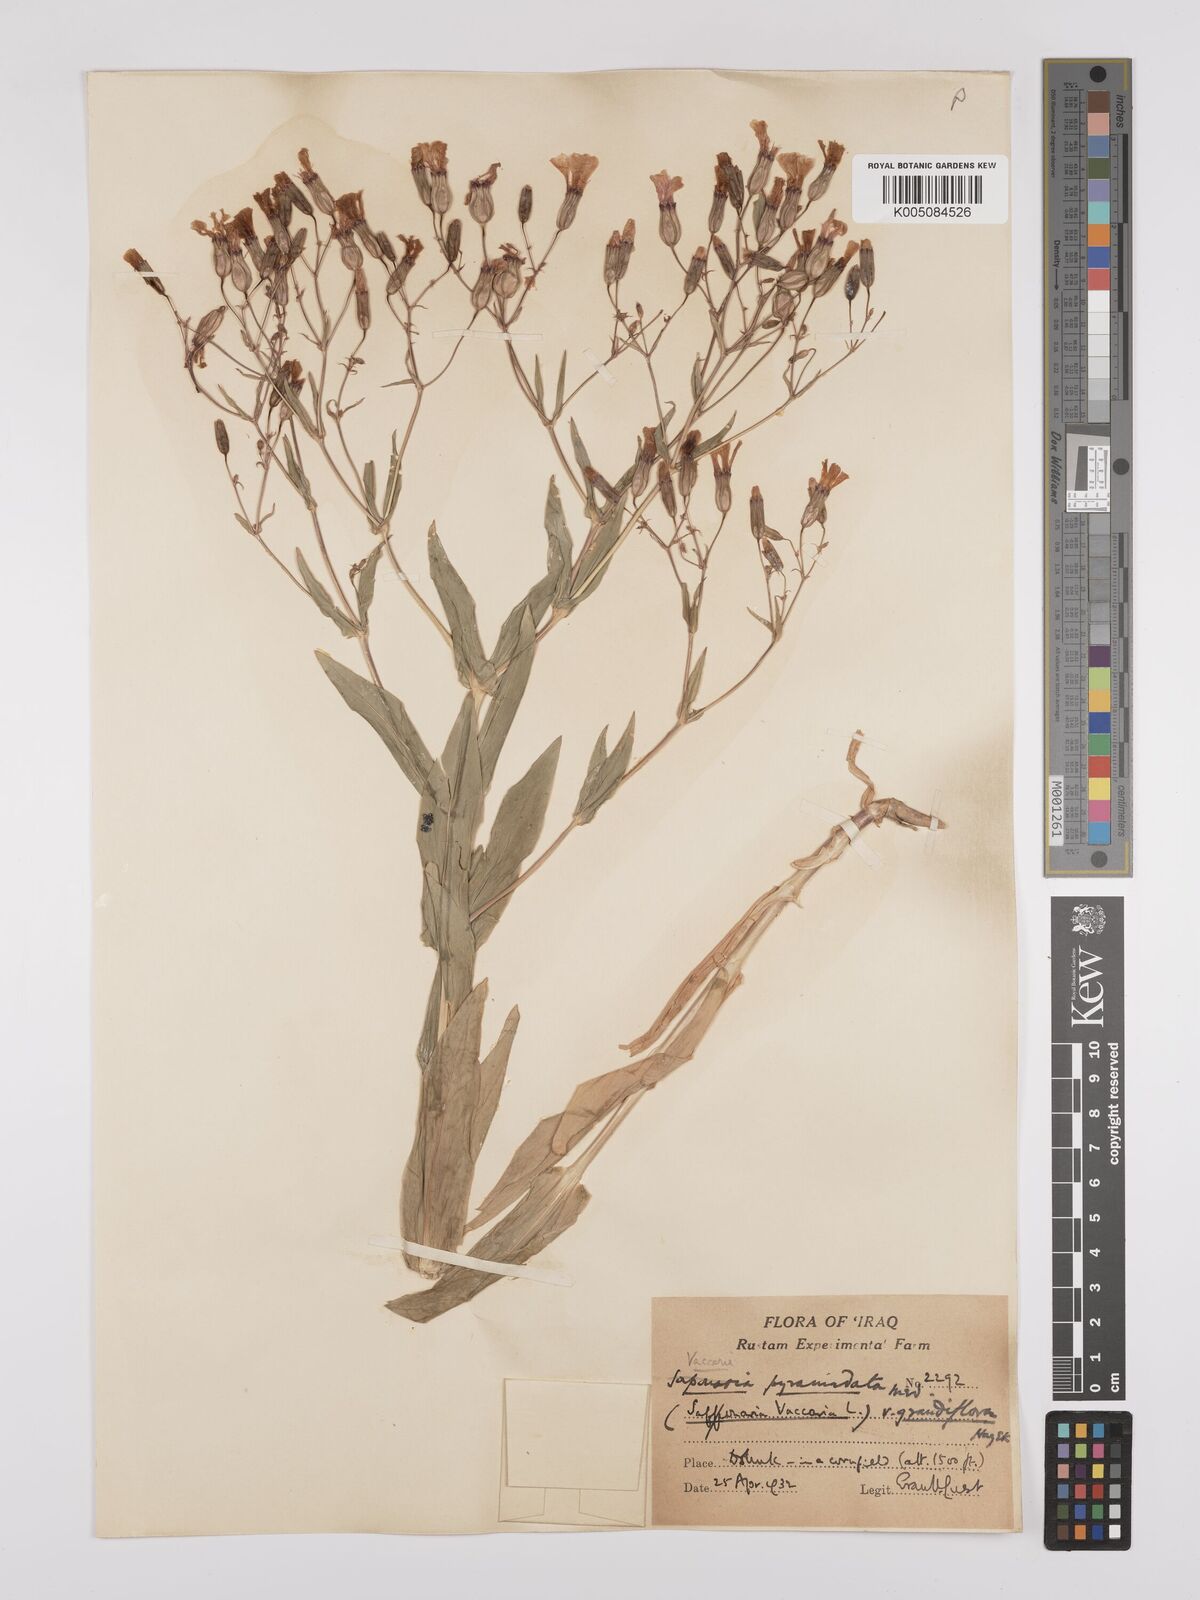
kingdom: Plantae
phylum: Tracheophyta
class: Magnoliopsida
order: Caryophyllales
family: Caryophyllaceae
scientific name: Caryophyllaceae
